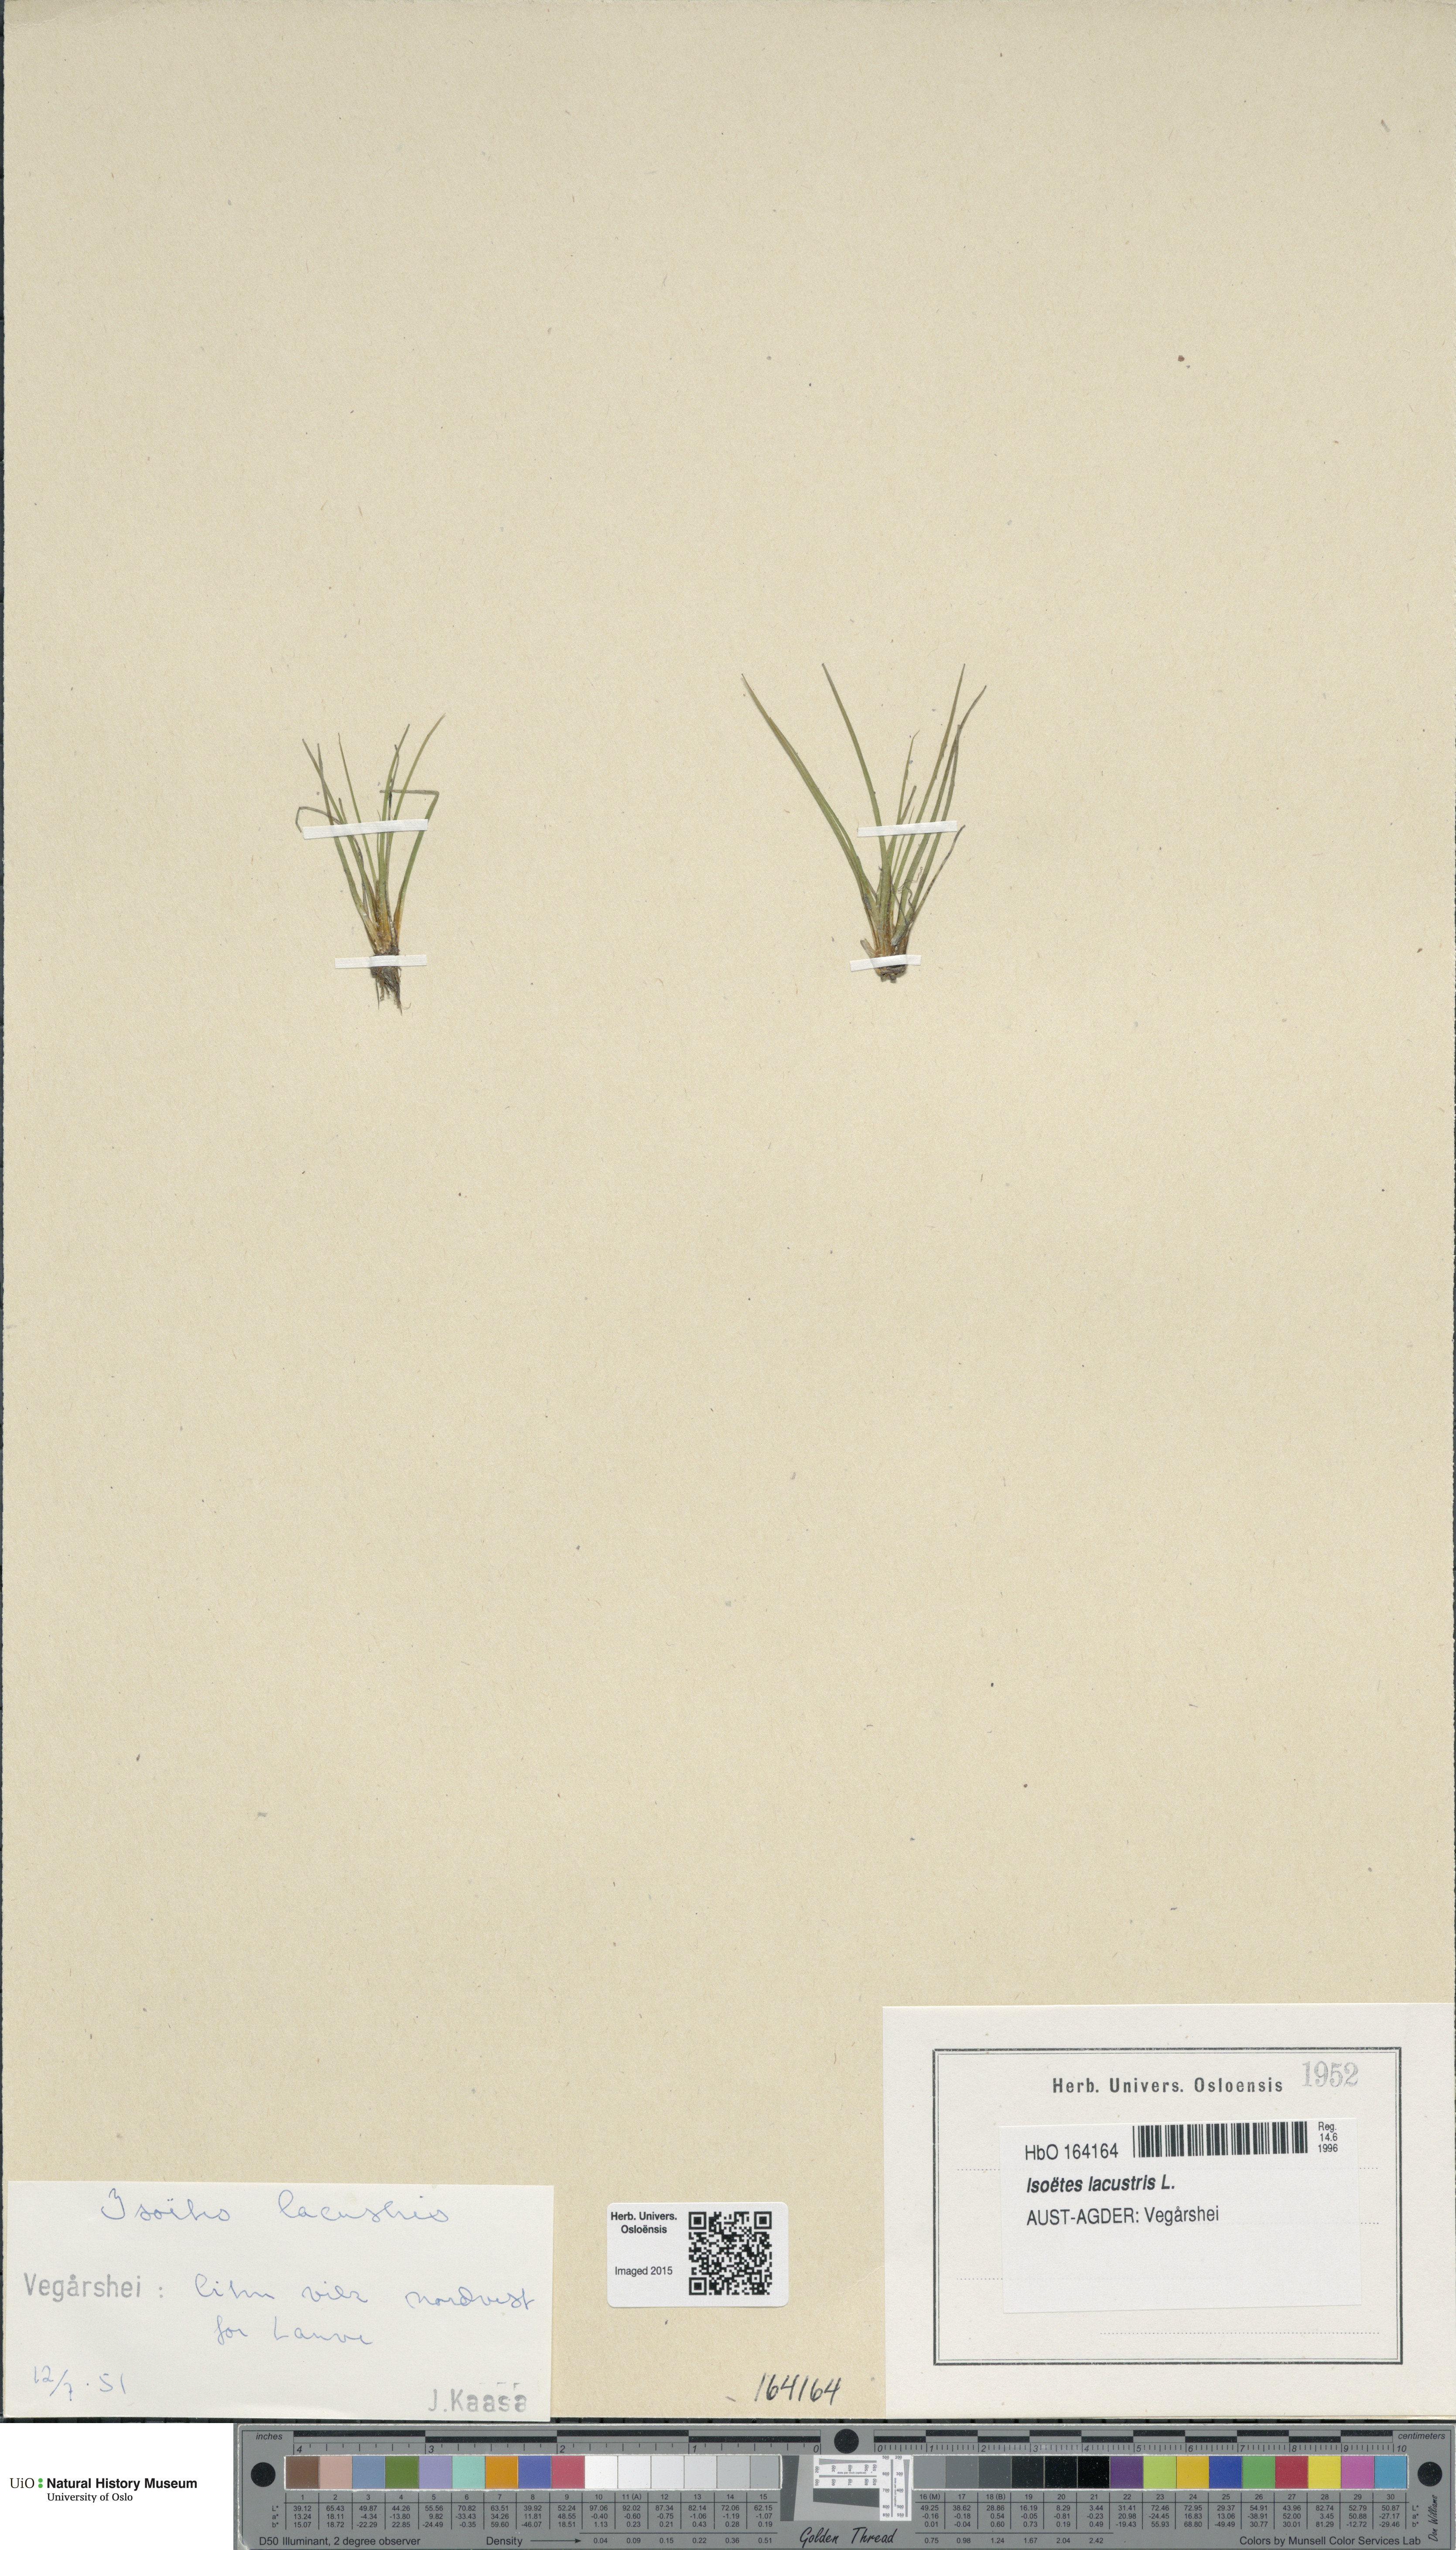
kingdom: Plantae
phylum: Tracheophyta
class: Lycopodiopsida
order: Isoetales
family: Isoetaceae
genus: Isoetes
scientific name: Isoetes lacustris
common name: Common quillwort
